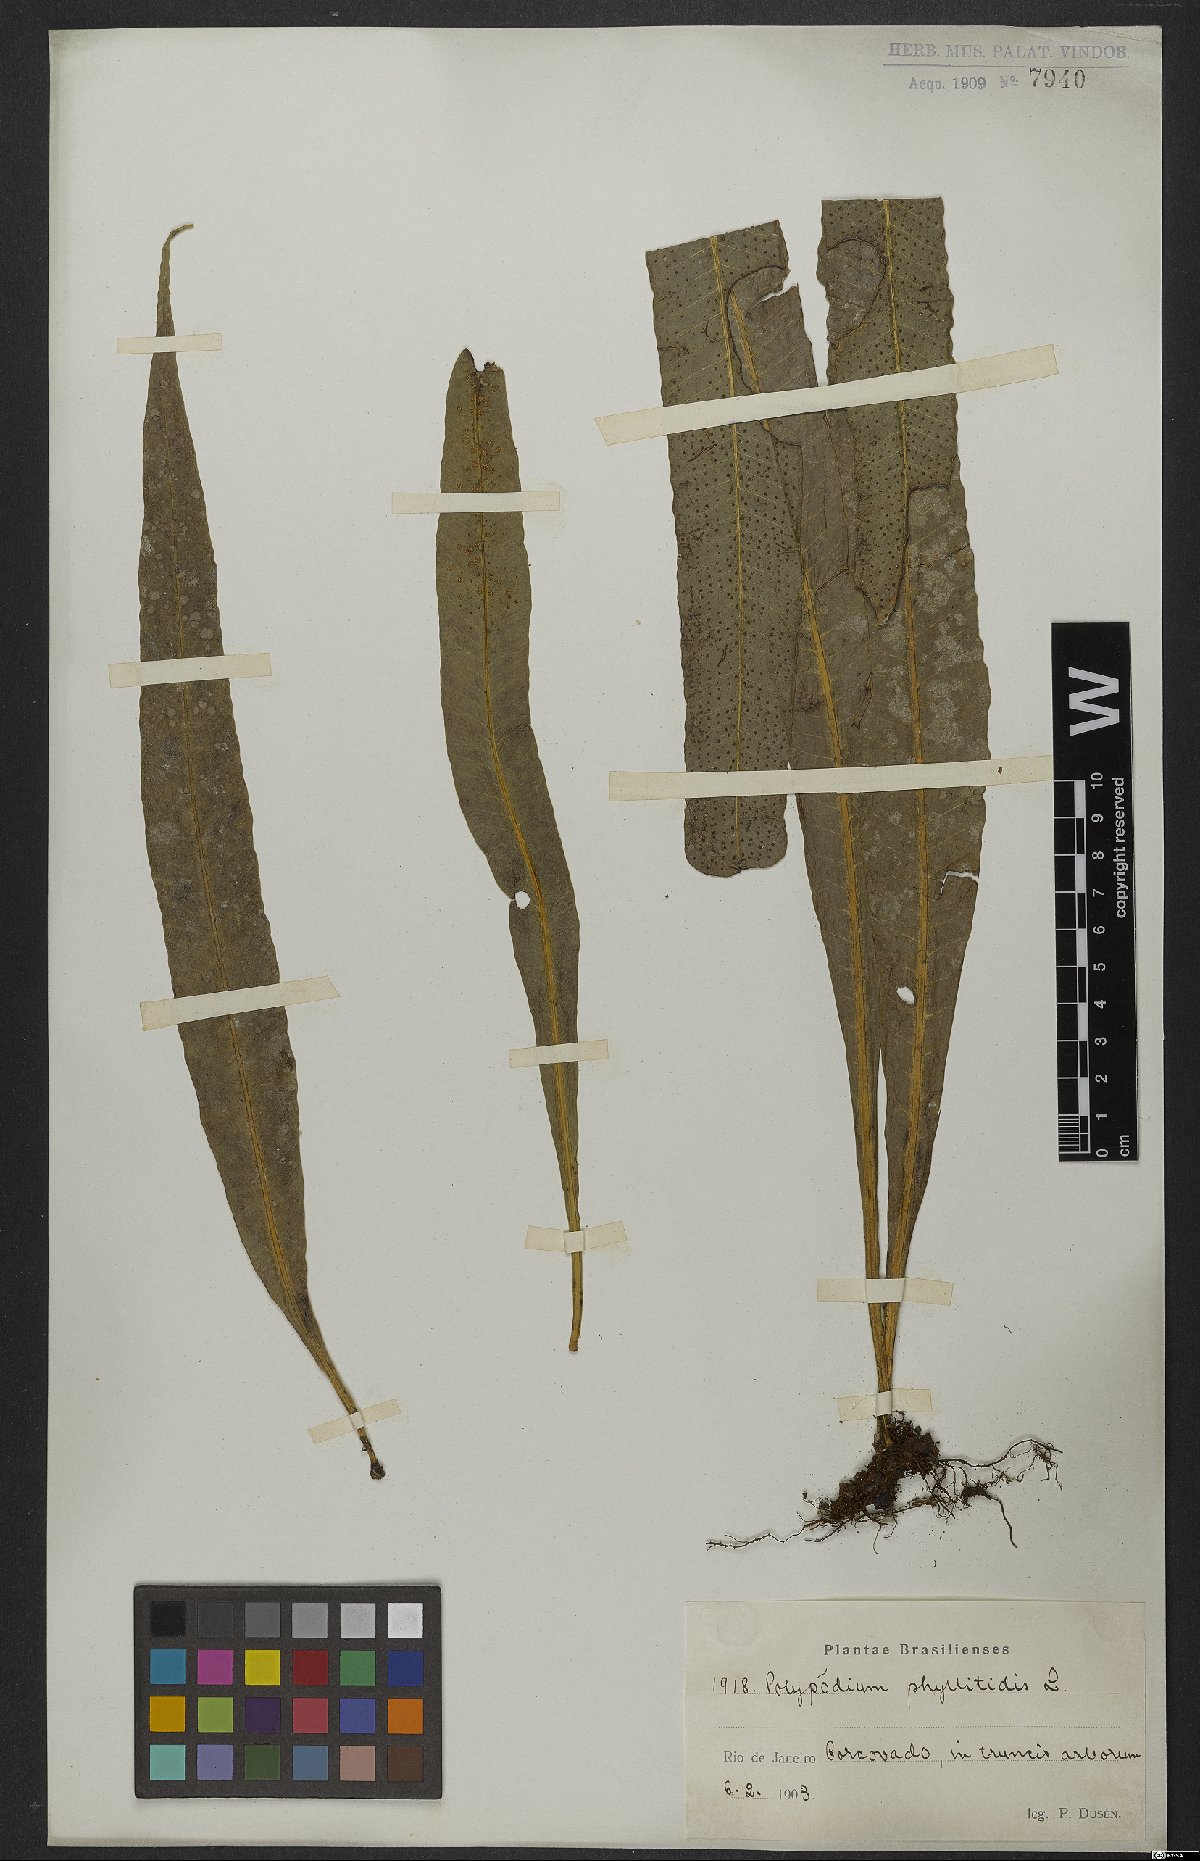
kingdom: Plantae
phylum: Tracheophyta
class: Polypodiopsida
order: Polypodiales
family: Polypodiaceae
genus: Campyloneurum
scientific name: Campyloneurum phyllitidis
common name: Cow-tongue fern
